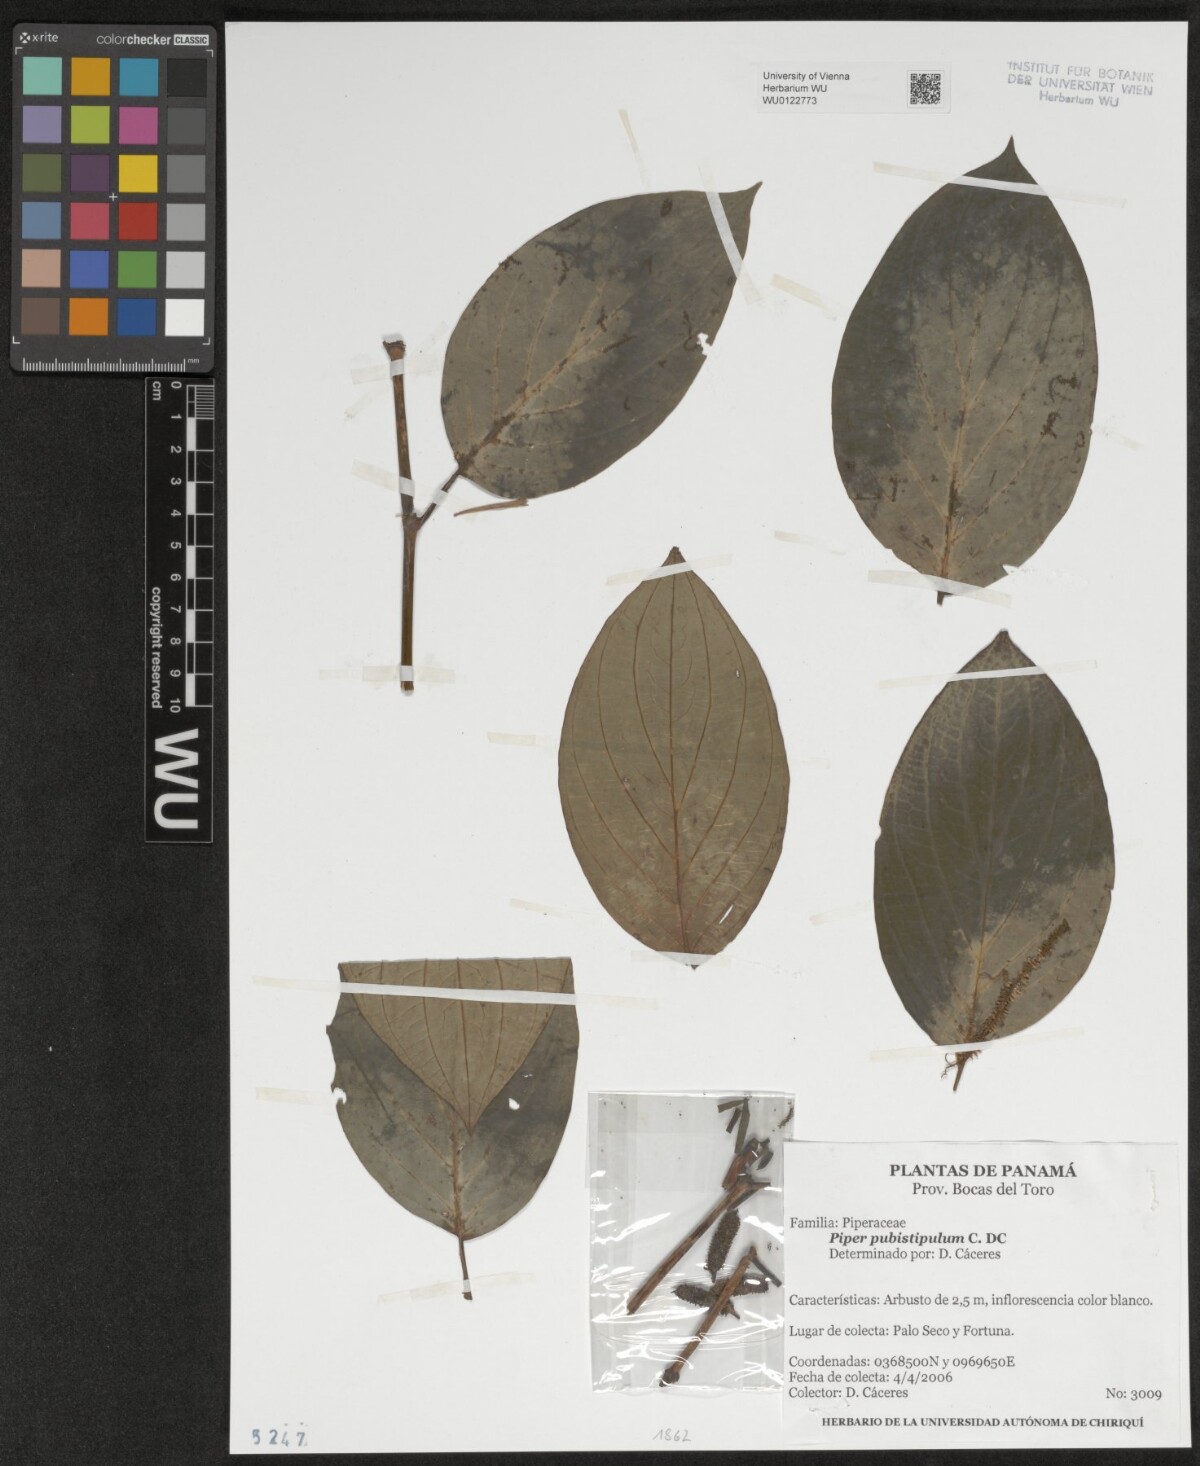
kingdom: Plantae
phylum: Tracheophyta
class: Magnoliopsida
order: Piperales
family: Piperaceae
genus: Piper
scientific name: Piper pubistipulum
